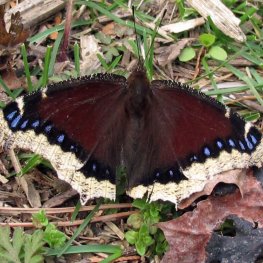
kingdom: Animalia
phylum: Arthropoda
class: Insecta
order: Lepidoptera
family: Nymphalidae
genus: Nymphalis
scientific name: Nymphalis antiopa
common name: Mourning Cloak
